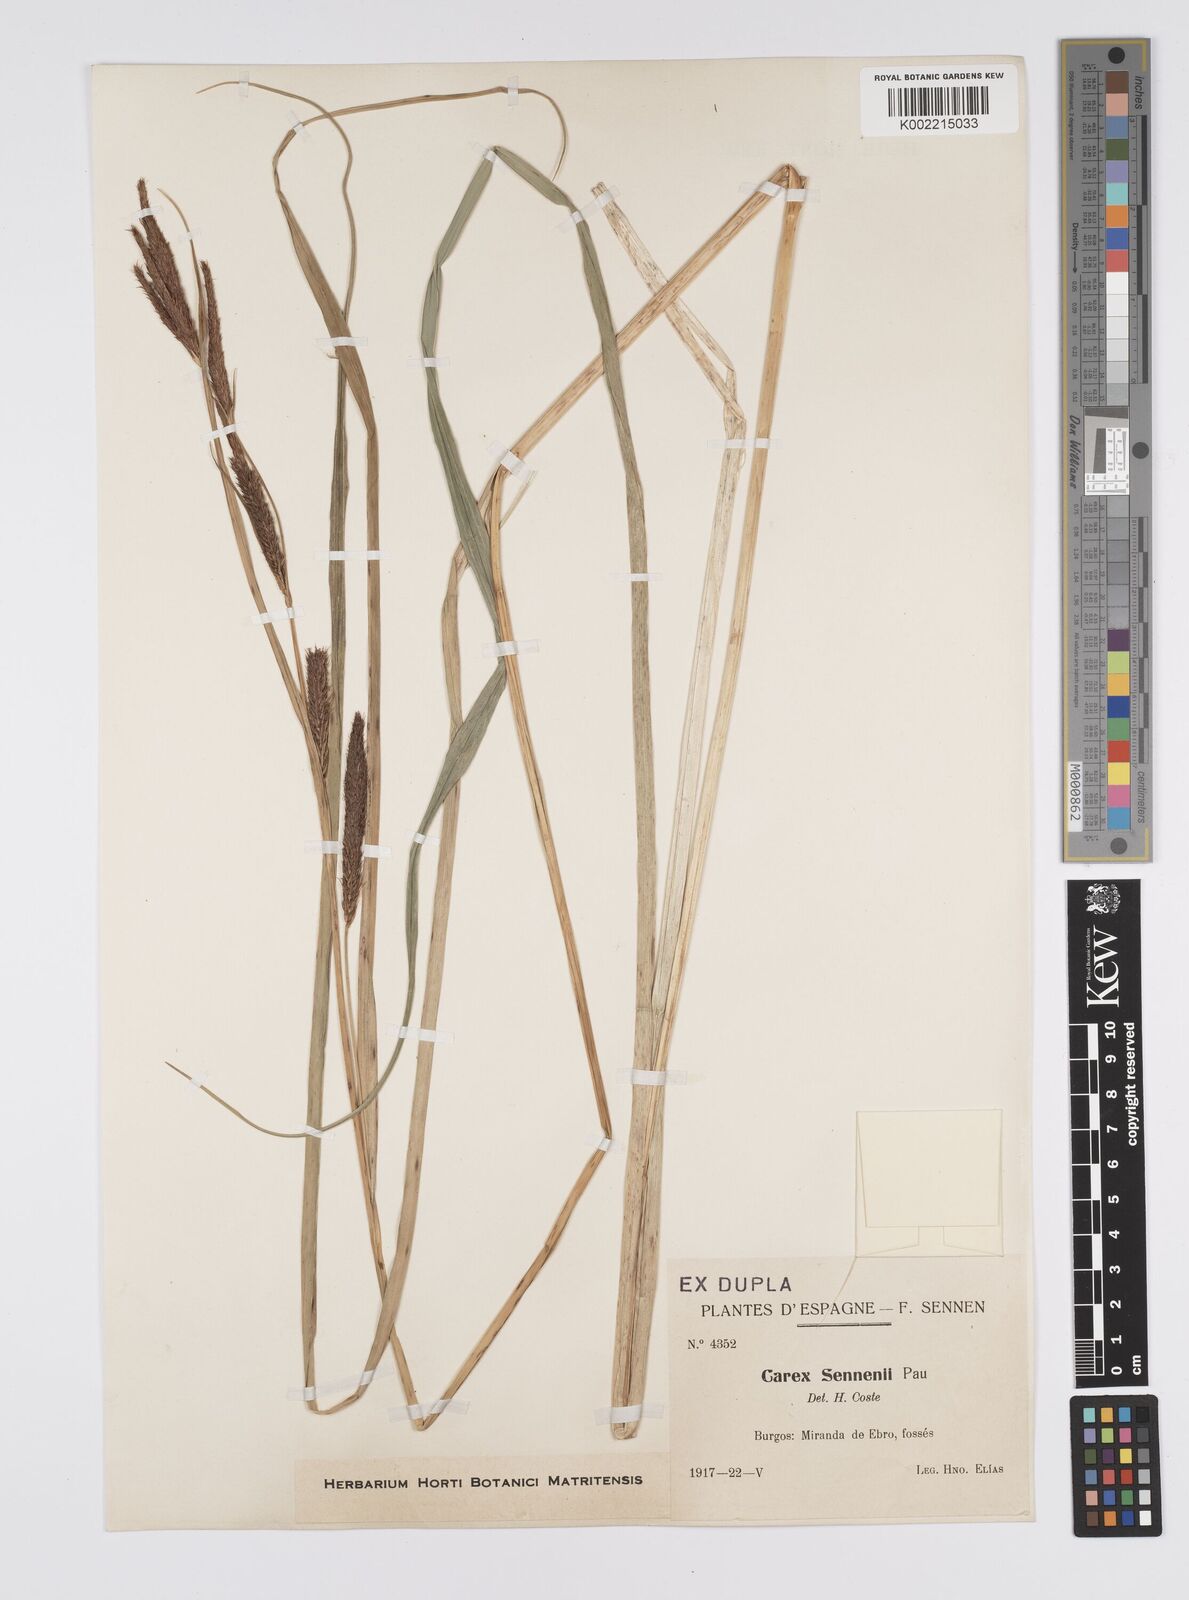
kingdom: Plantae
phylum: Tracheophyta
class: Liliopsida
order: Poales
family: Cyperaceae
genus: Carex
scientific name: Carex riparia
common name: Greater pond-sedge
